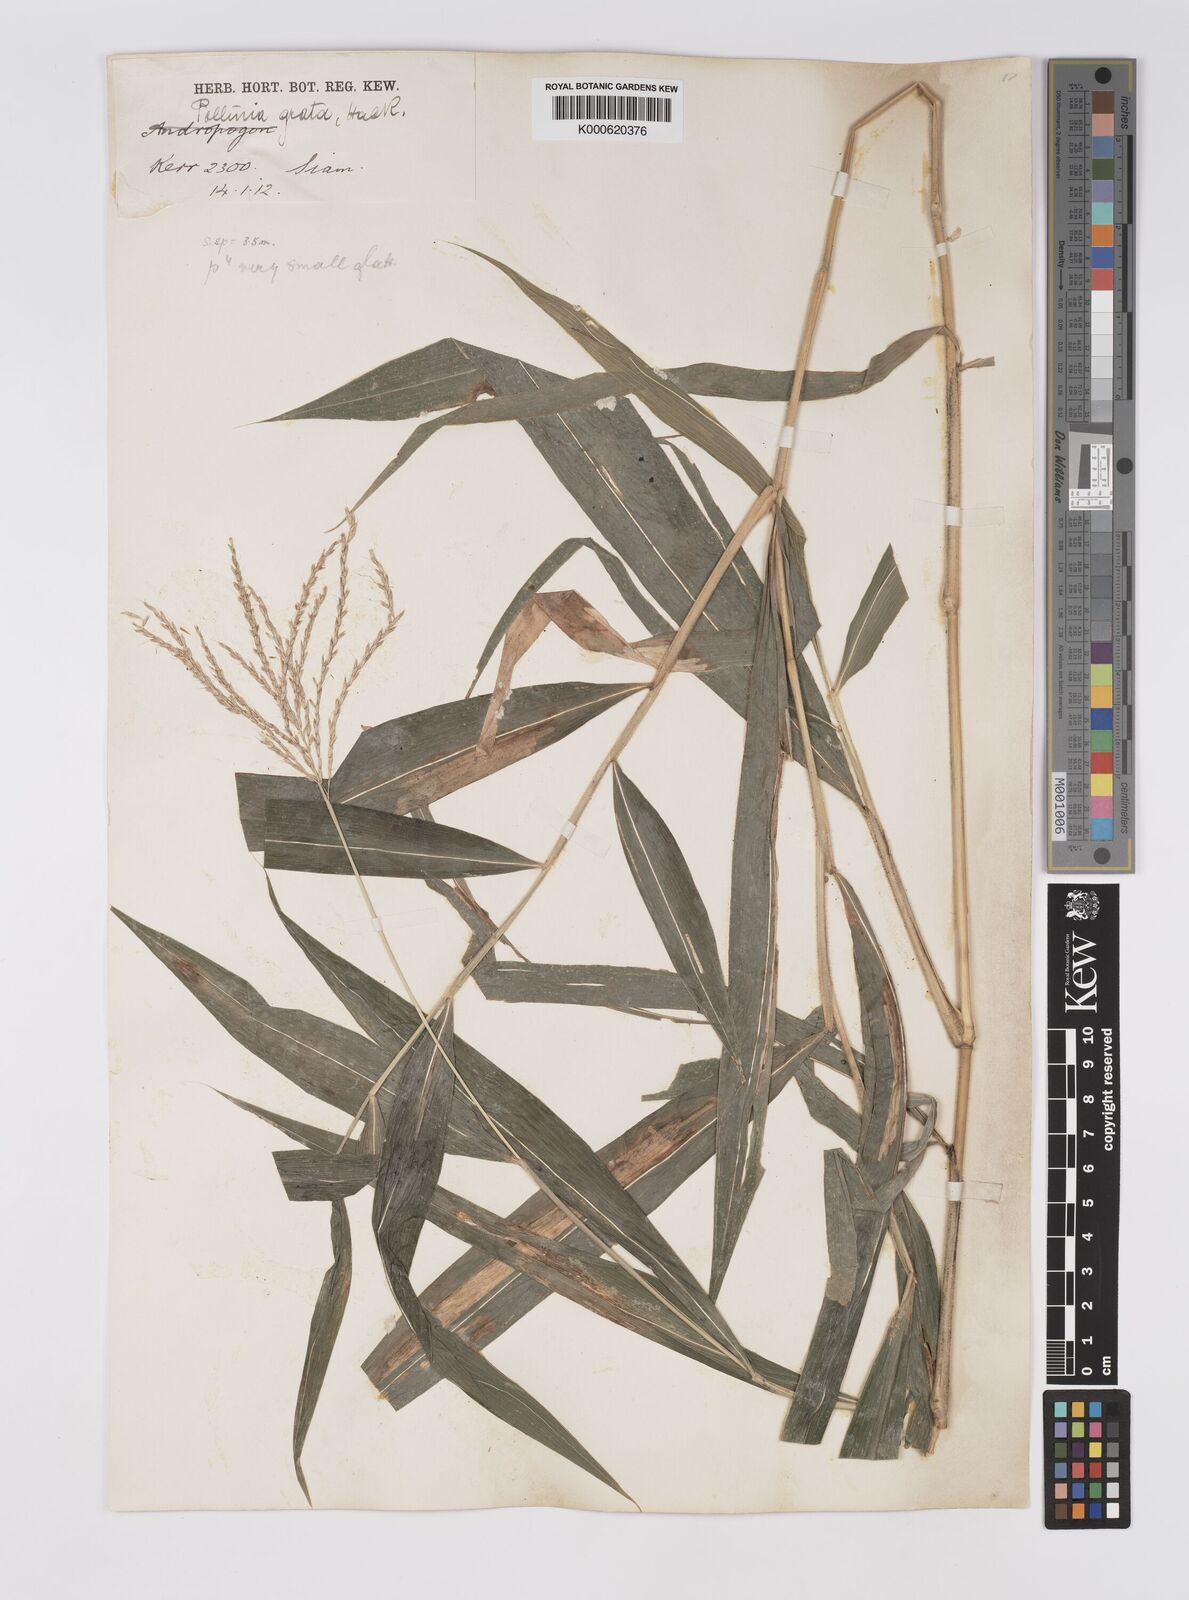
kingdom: Plantae
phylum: Tracheophyta
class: Liliopsida
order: Poales
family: Poaceae
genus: Microstegium
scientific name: Microstegium fasciculatum
